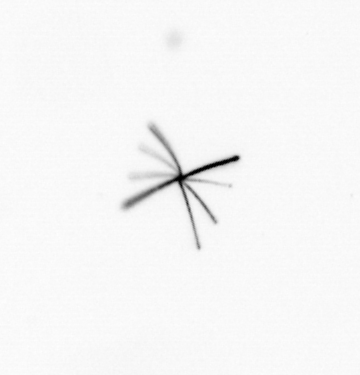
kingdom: Chromista
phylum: Ochrophyta
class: Bacillariophyceae
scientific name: Bacillariophyceae
